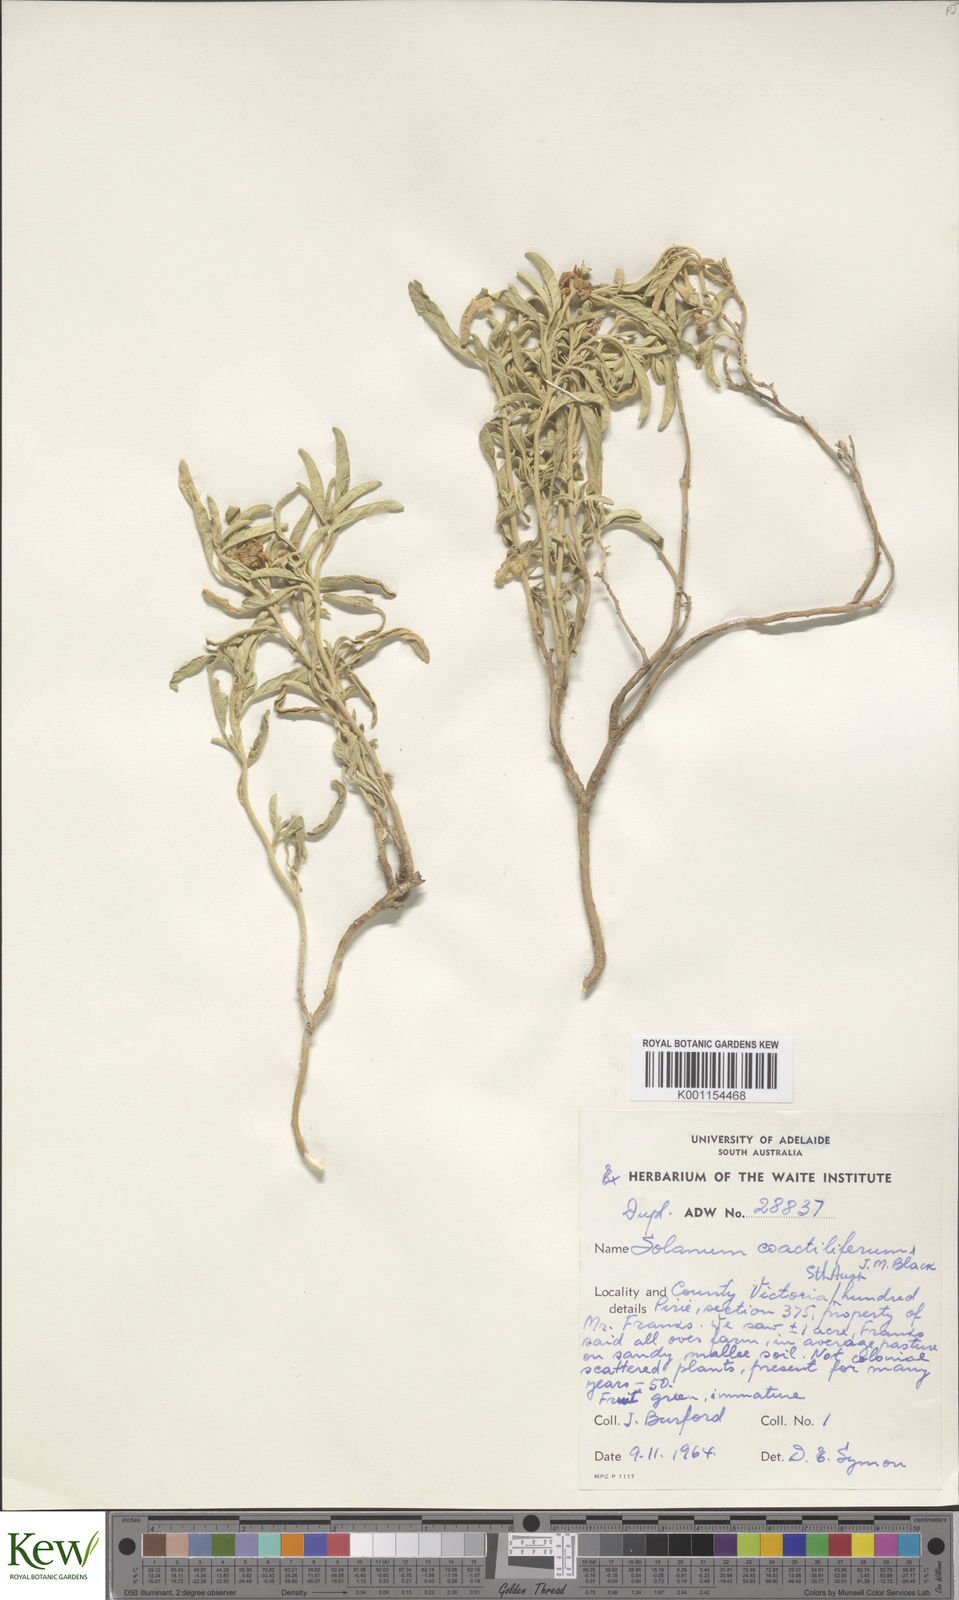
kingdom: Plantae
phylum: Tracheophyta
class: Magnoliopsida
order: Solanales
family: Solanaceae
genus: Solanum
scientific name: Solanum coactiliferum
